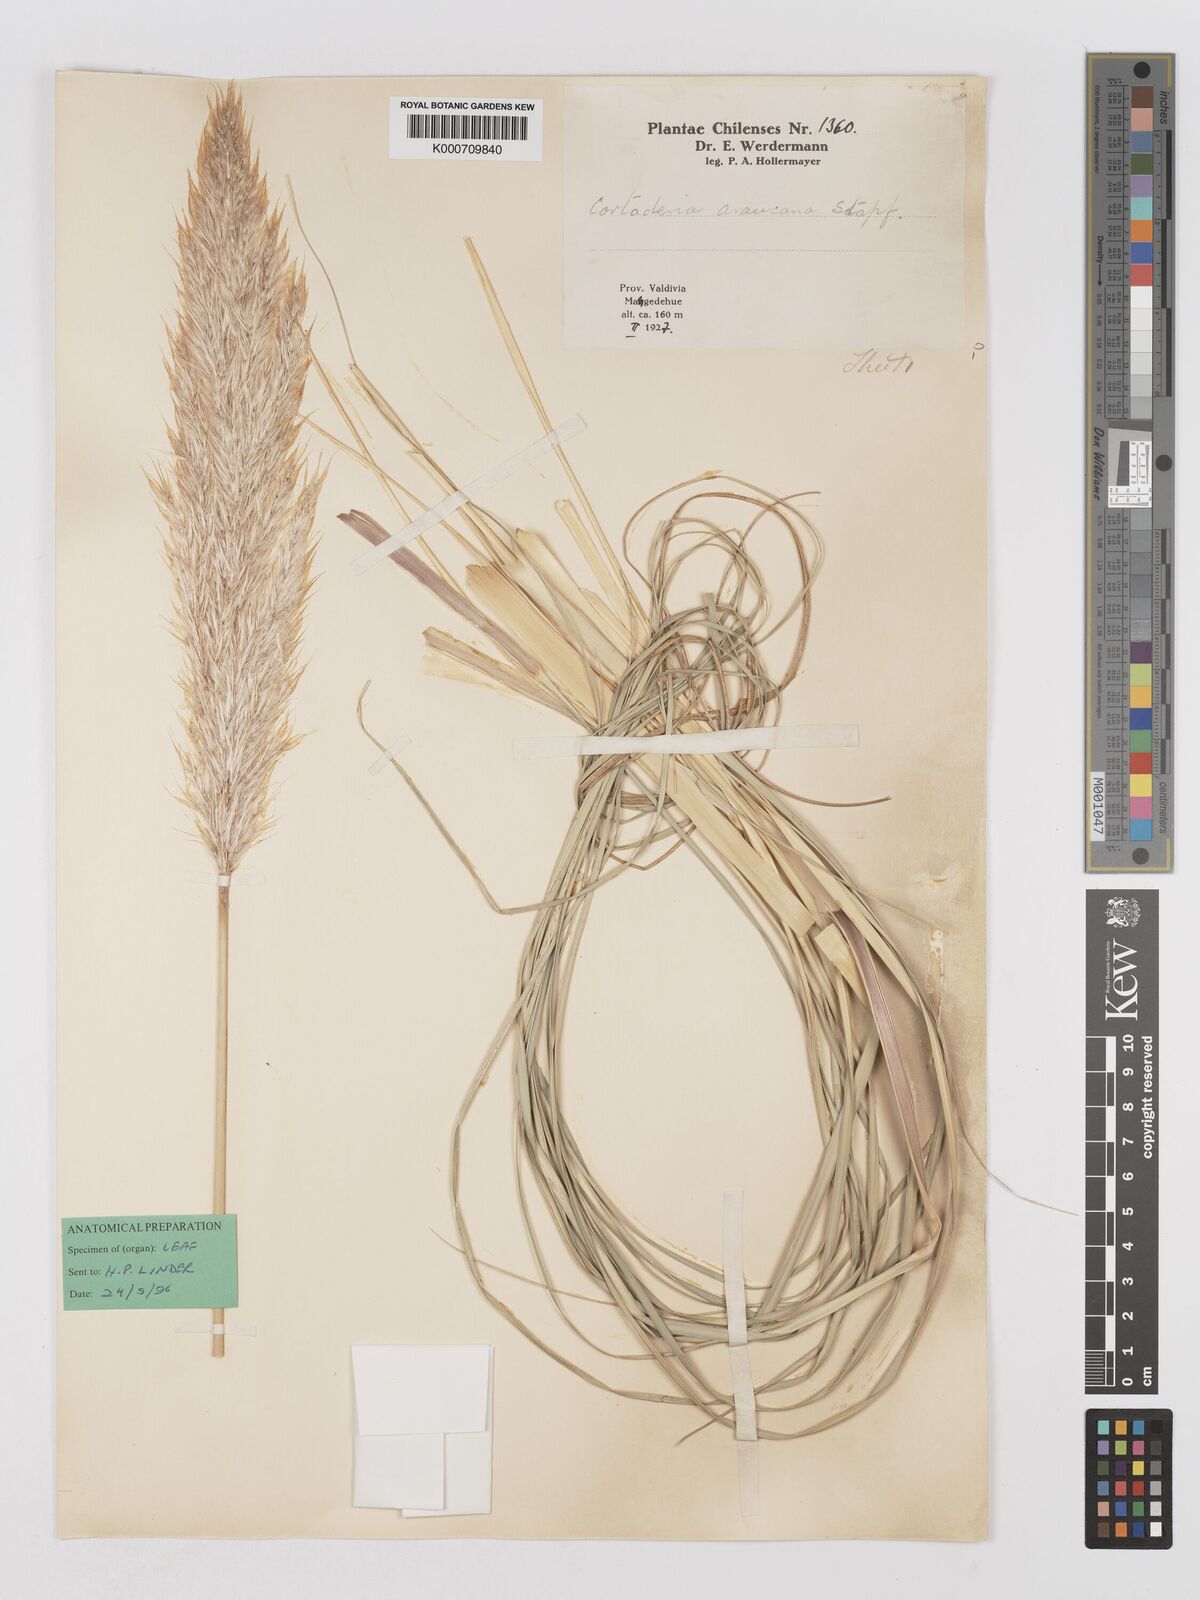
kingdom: Plantae
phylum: Tracheophyta
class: Liliopsida
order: Poales
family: Poaceae
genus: Cortaderia
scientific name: Cortaderia araucana
